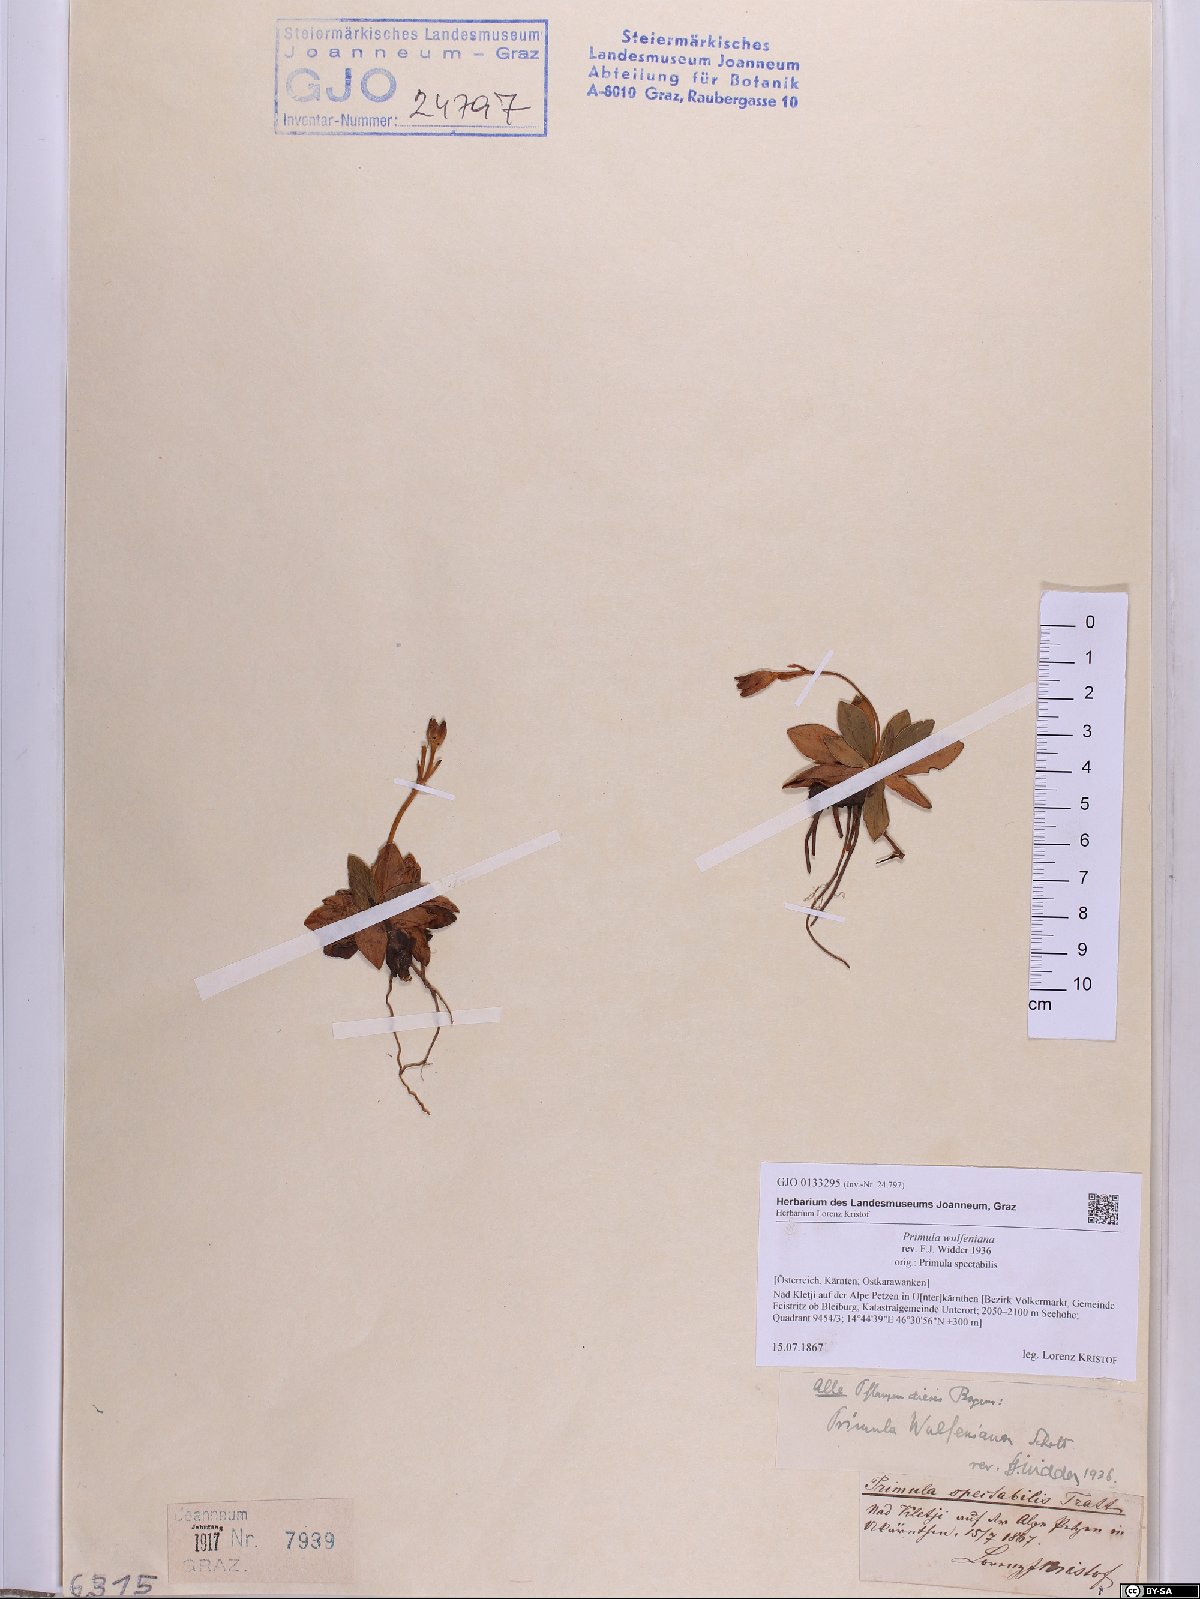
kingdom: Plantae
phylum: Tracheophyta
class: Magnoliopsida
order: Ericales
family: Primulaceae
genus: Primula
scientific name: Primula wulfeniana
